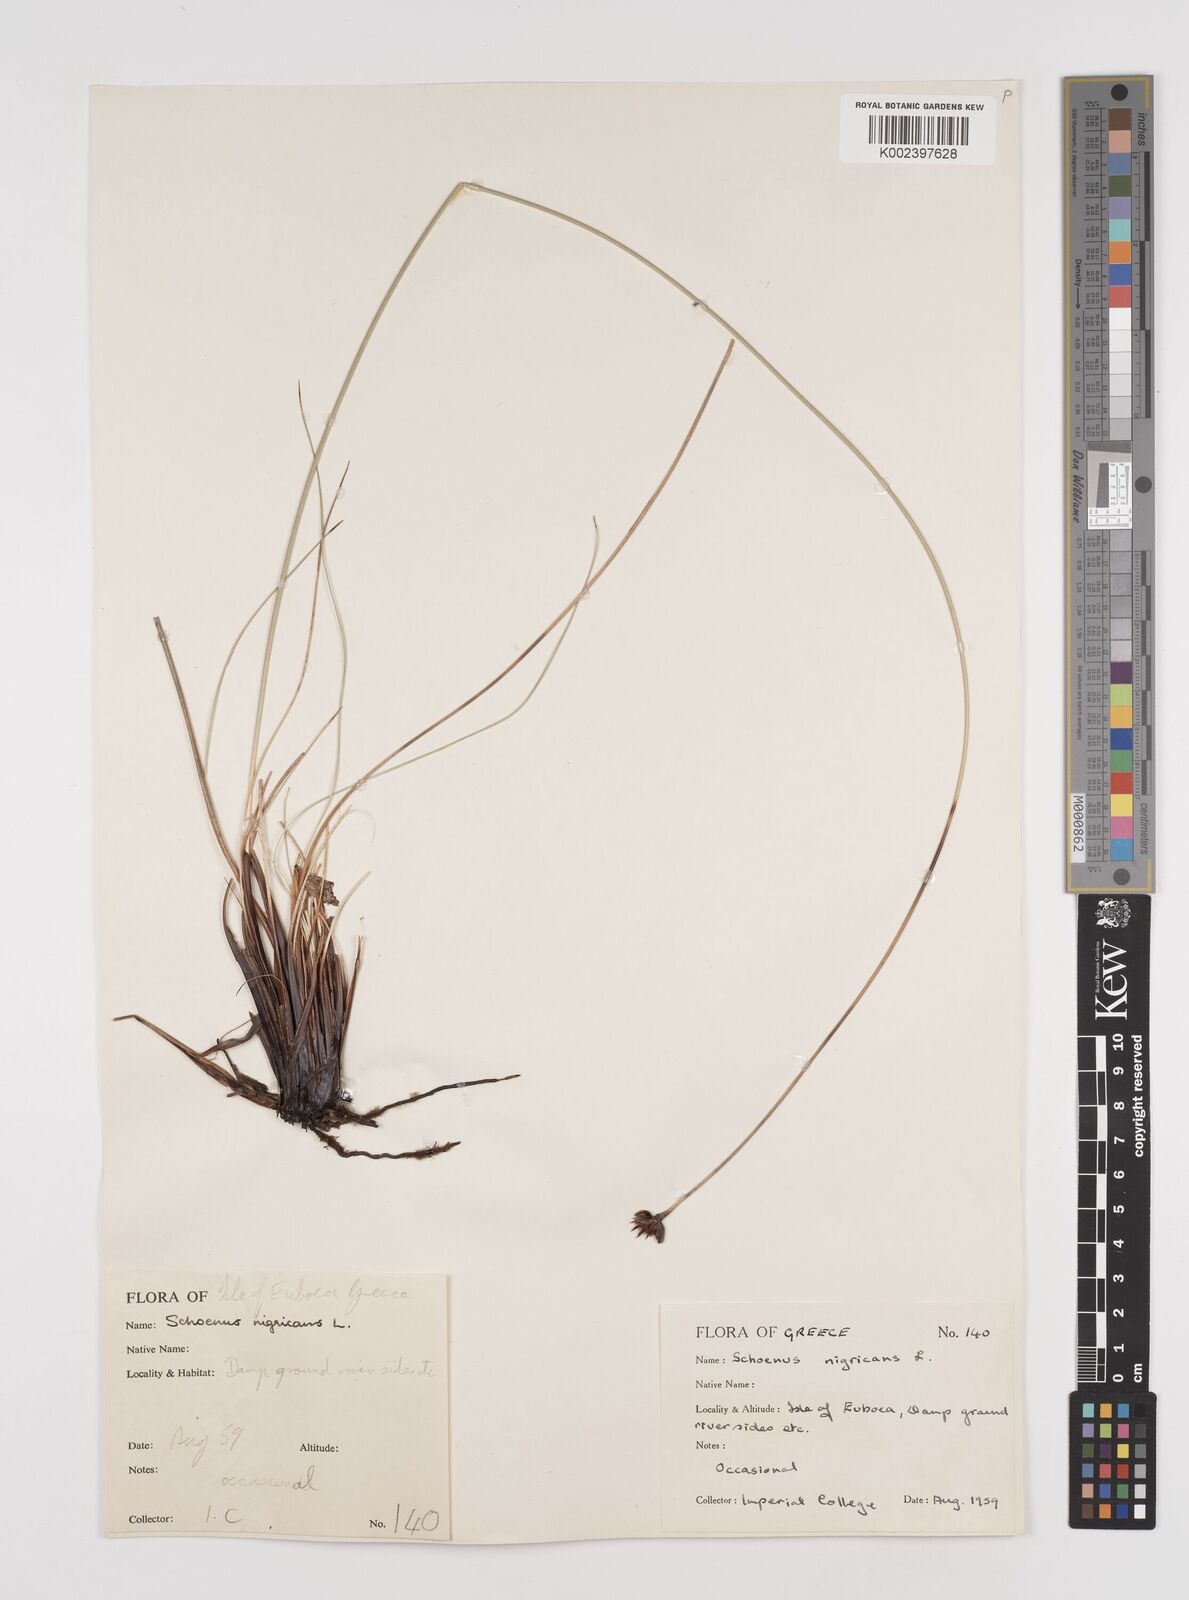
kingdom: Plantae
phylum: Tracheophyta
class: Liliopsida
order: Poales
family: Cyperaceae
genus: Schoenus
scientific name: Schoenus nigricans
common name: Black bog-rush
